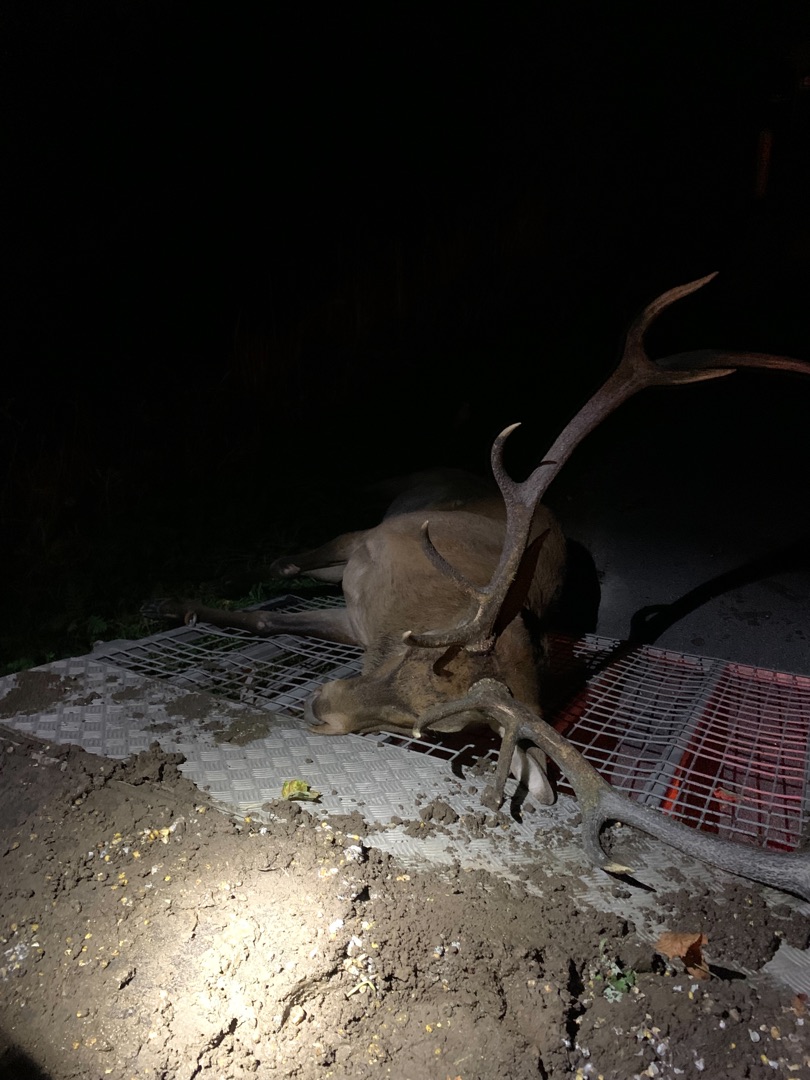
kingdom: Animalia
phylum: Chordata
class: Mammalia
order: Artiodactyla
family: Cervidae
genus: Cervus
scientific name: Cervus elaphus
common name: Krondyr
